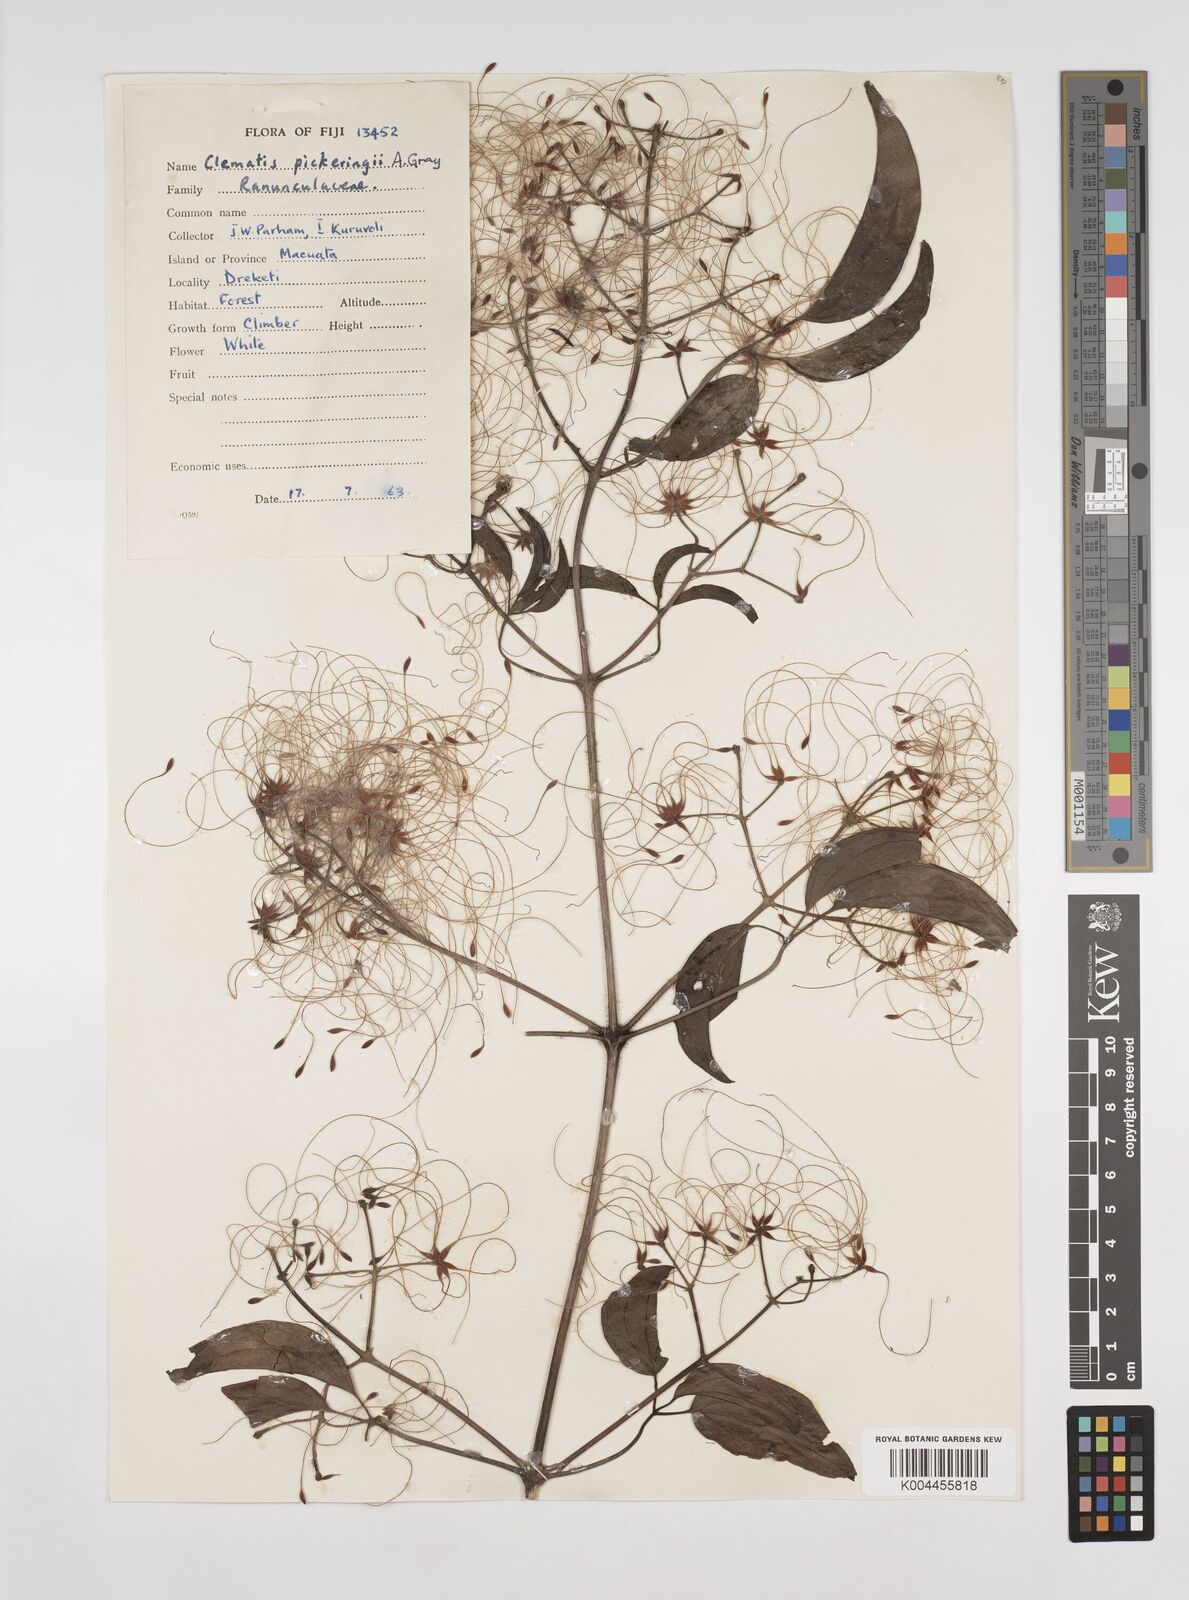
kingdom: Plantae
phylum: Tracheophyta
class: Magnoliopsida
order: Ranunculales
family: Ranunculaceae
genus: Clematis
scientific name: Clematis pickeringii
